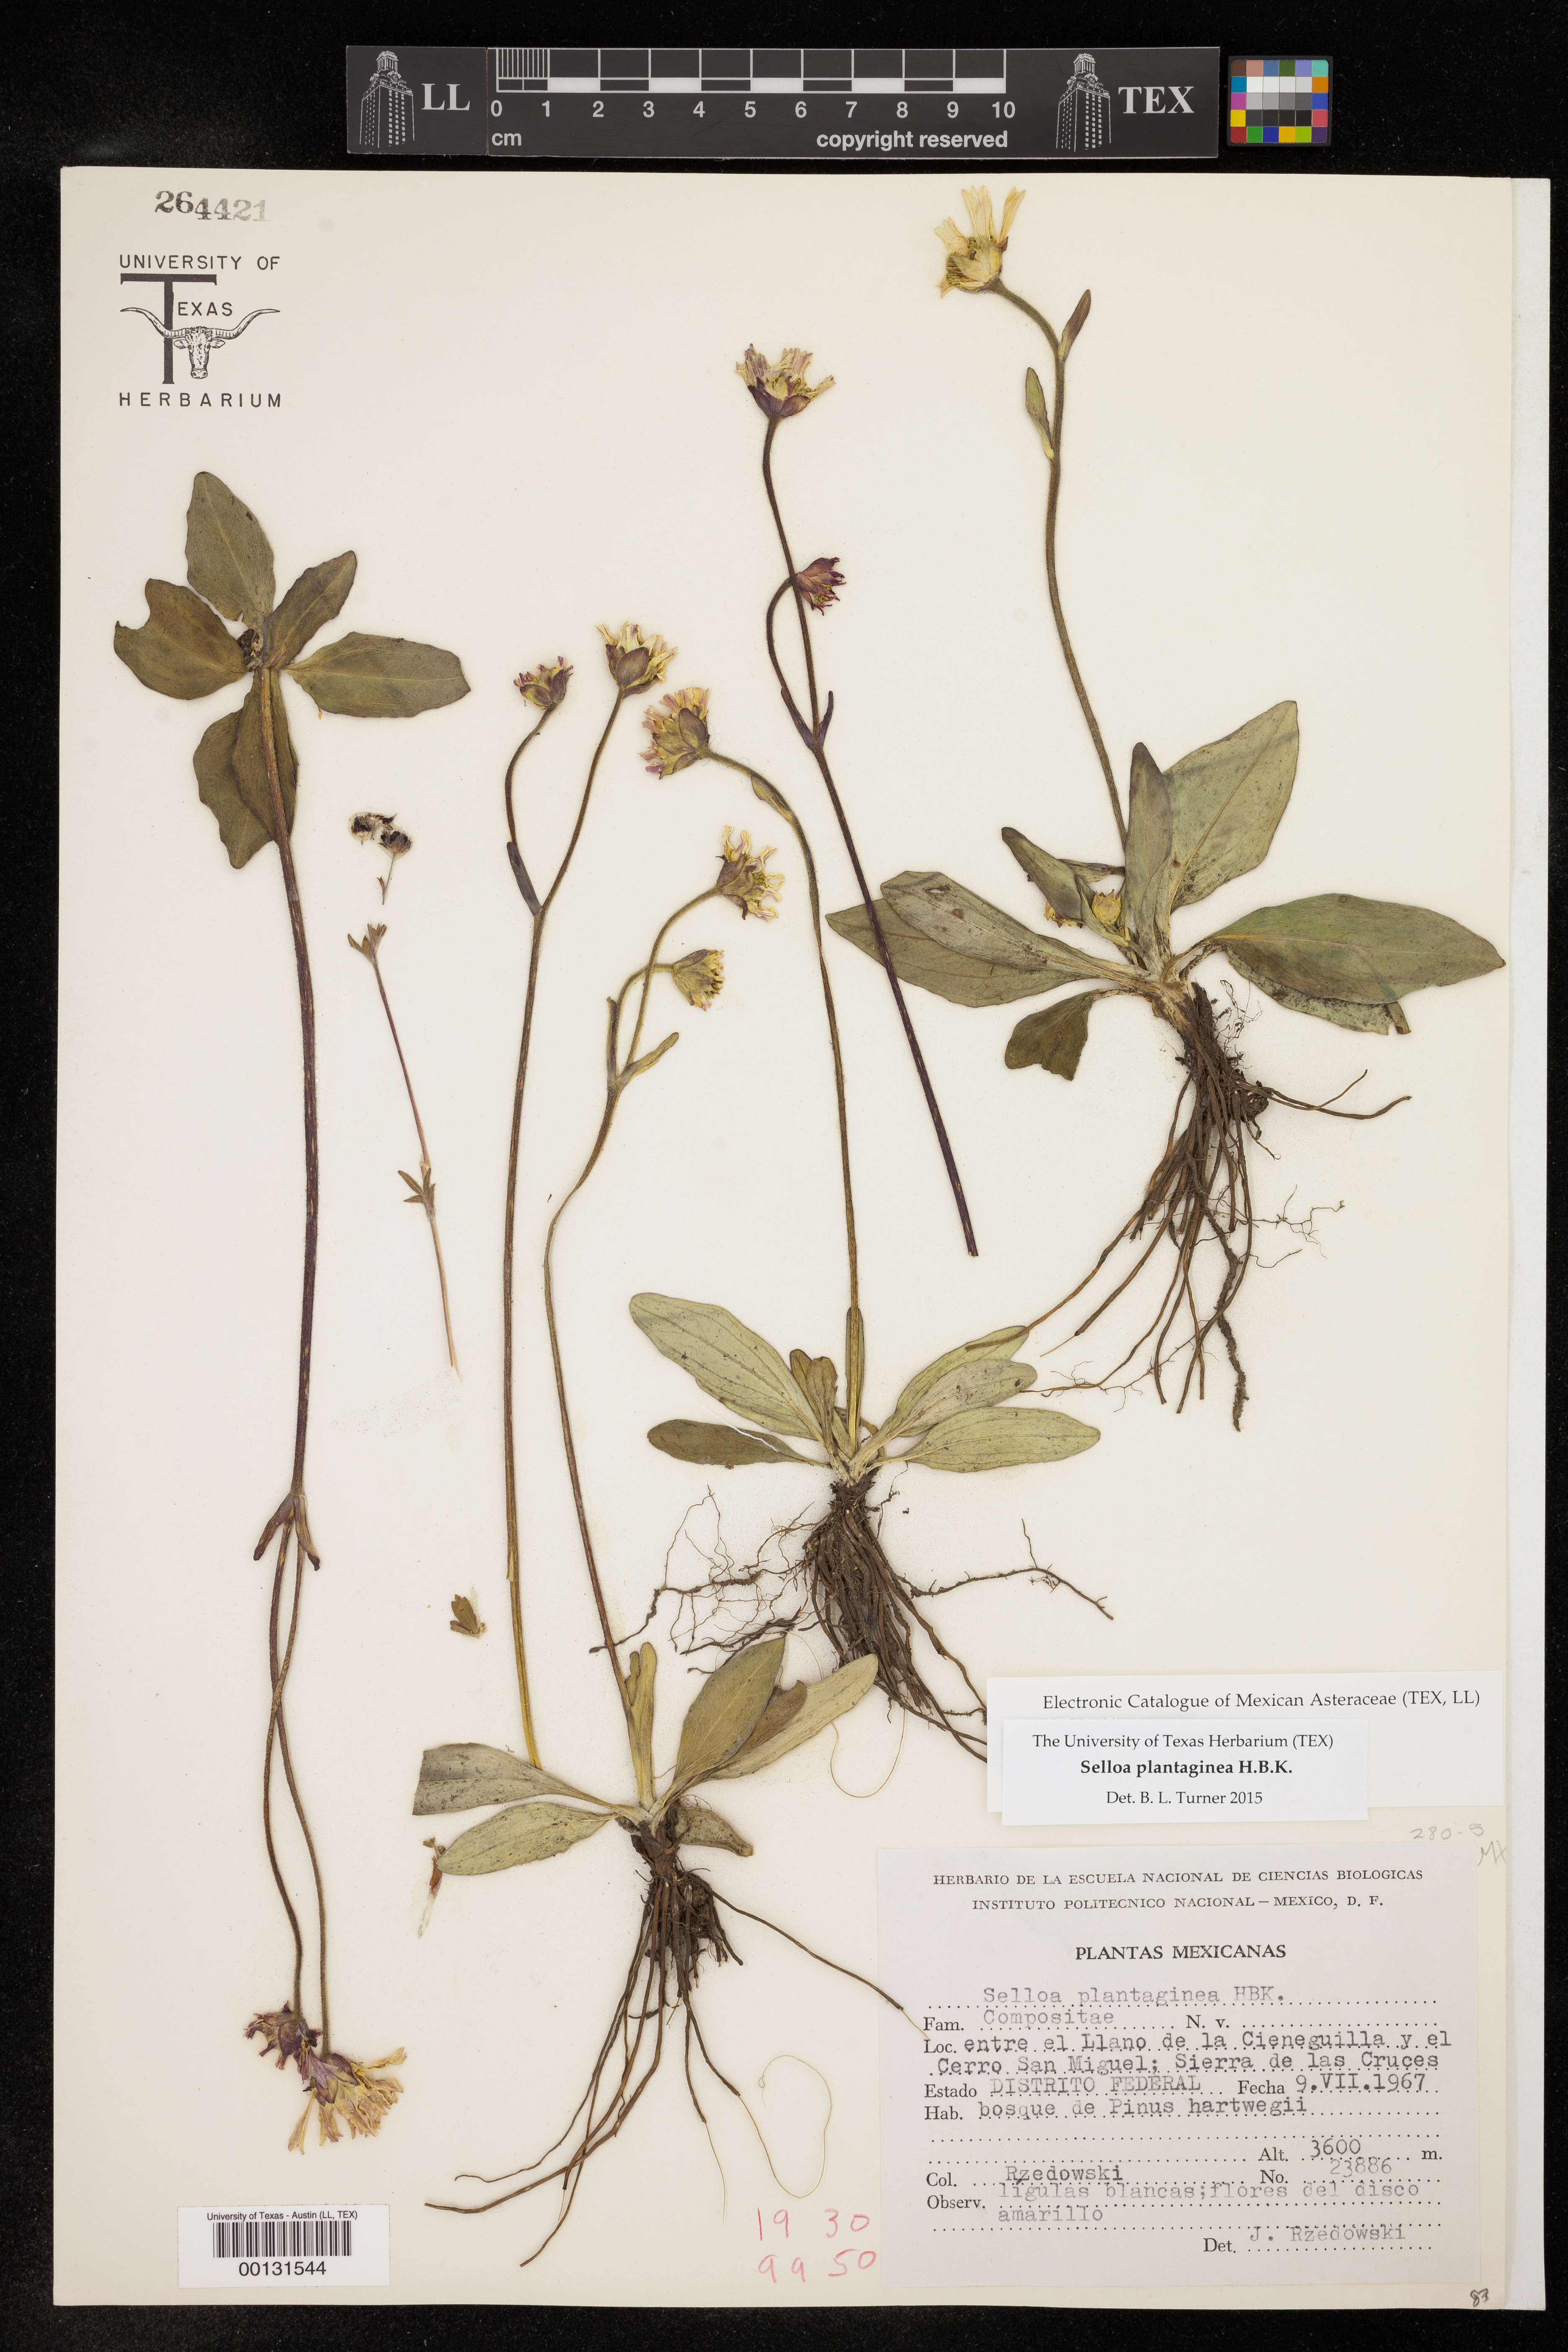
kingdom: Plantae
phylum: Tracheophyta
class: Magnoliopsida
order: Asterales
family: Asteraceae
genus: Selloa
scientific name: Selloa plantaginea
